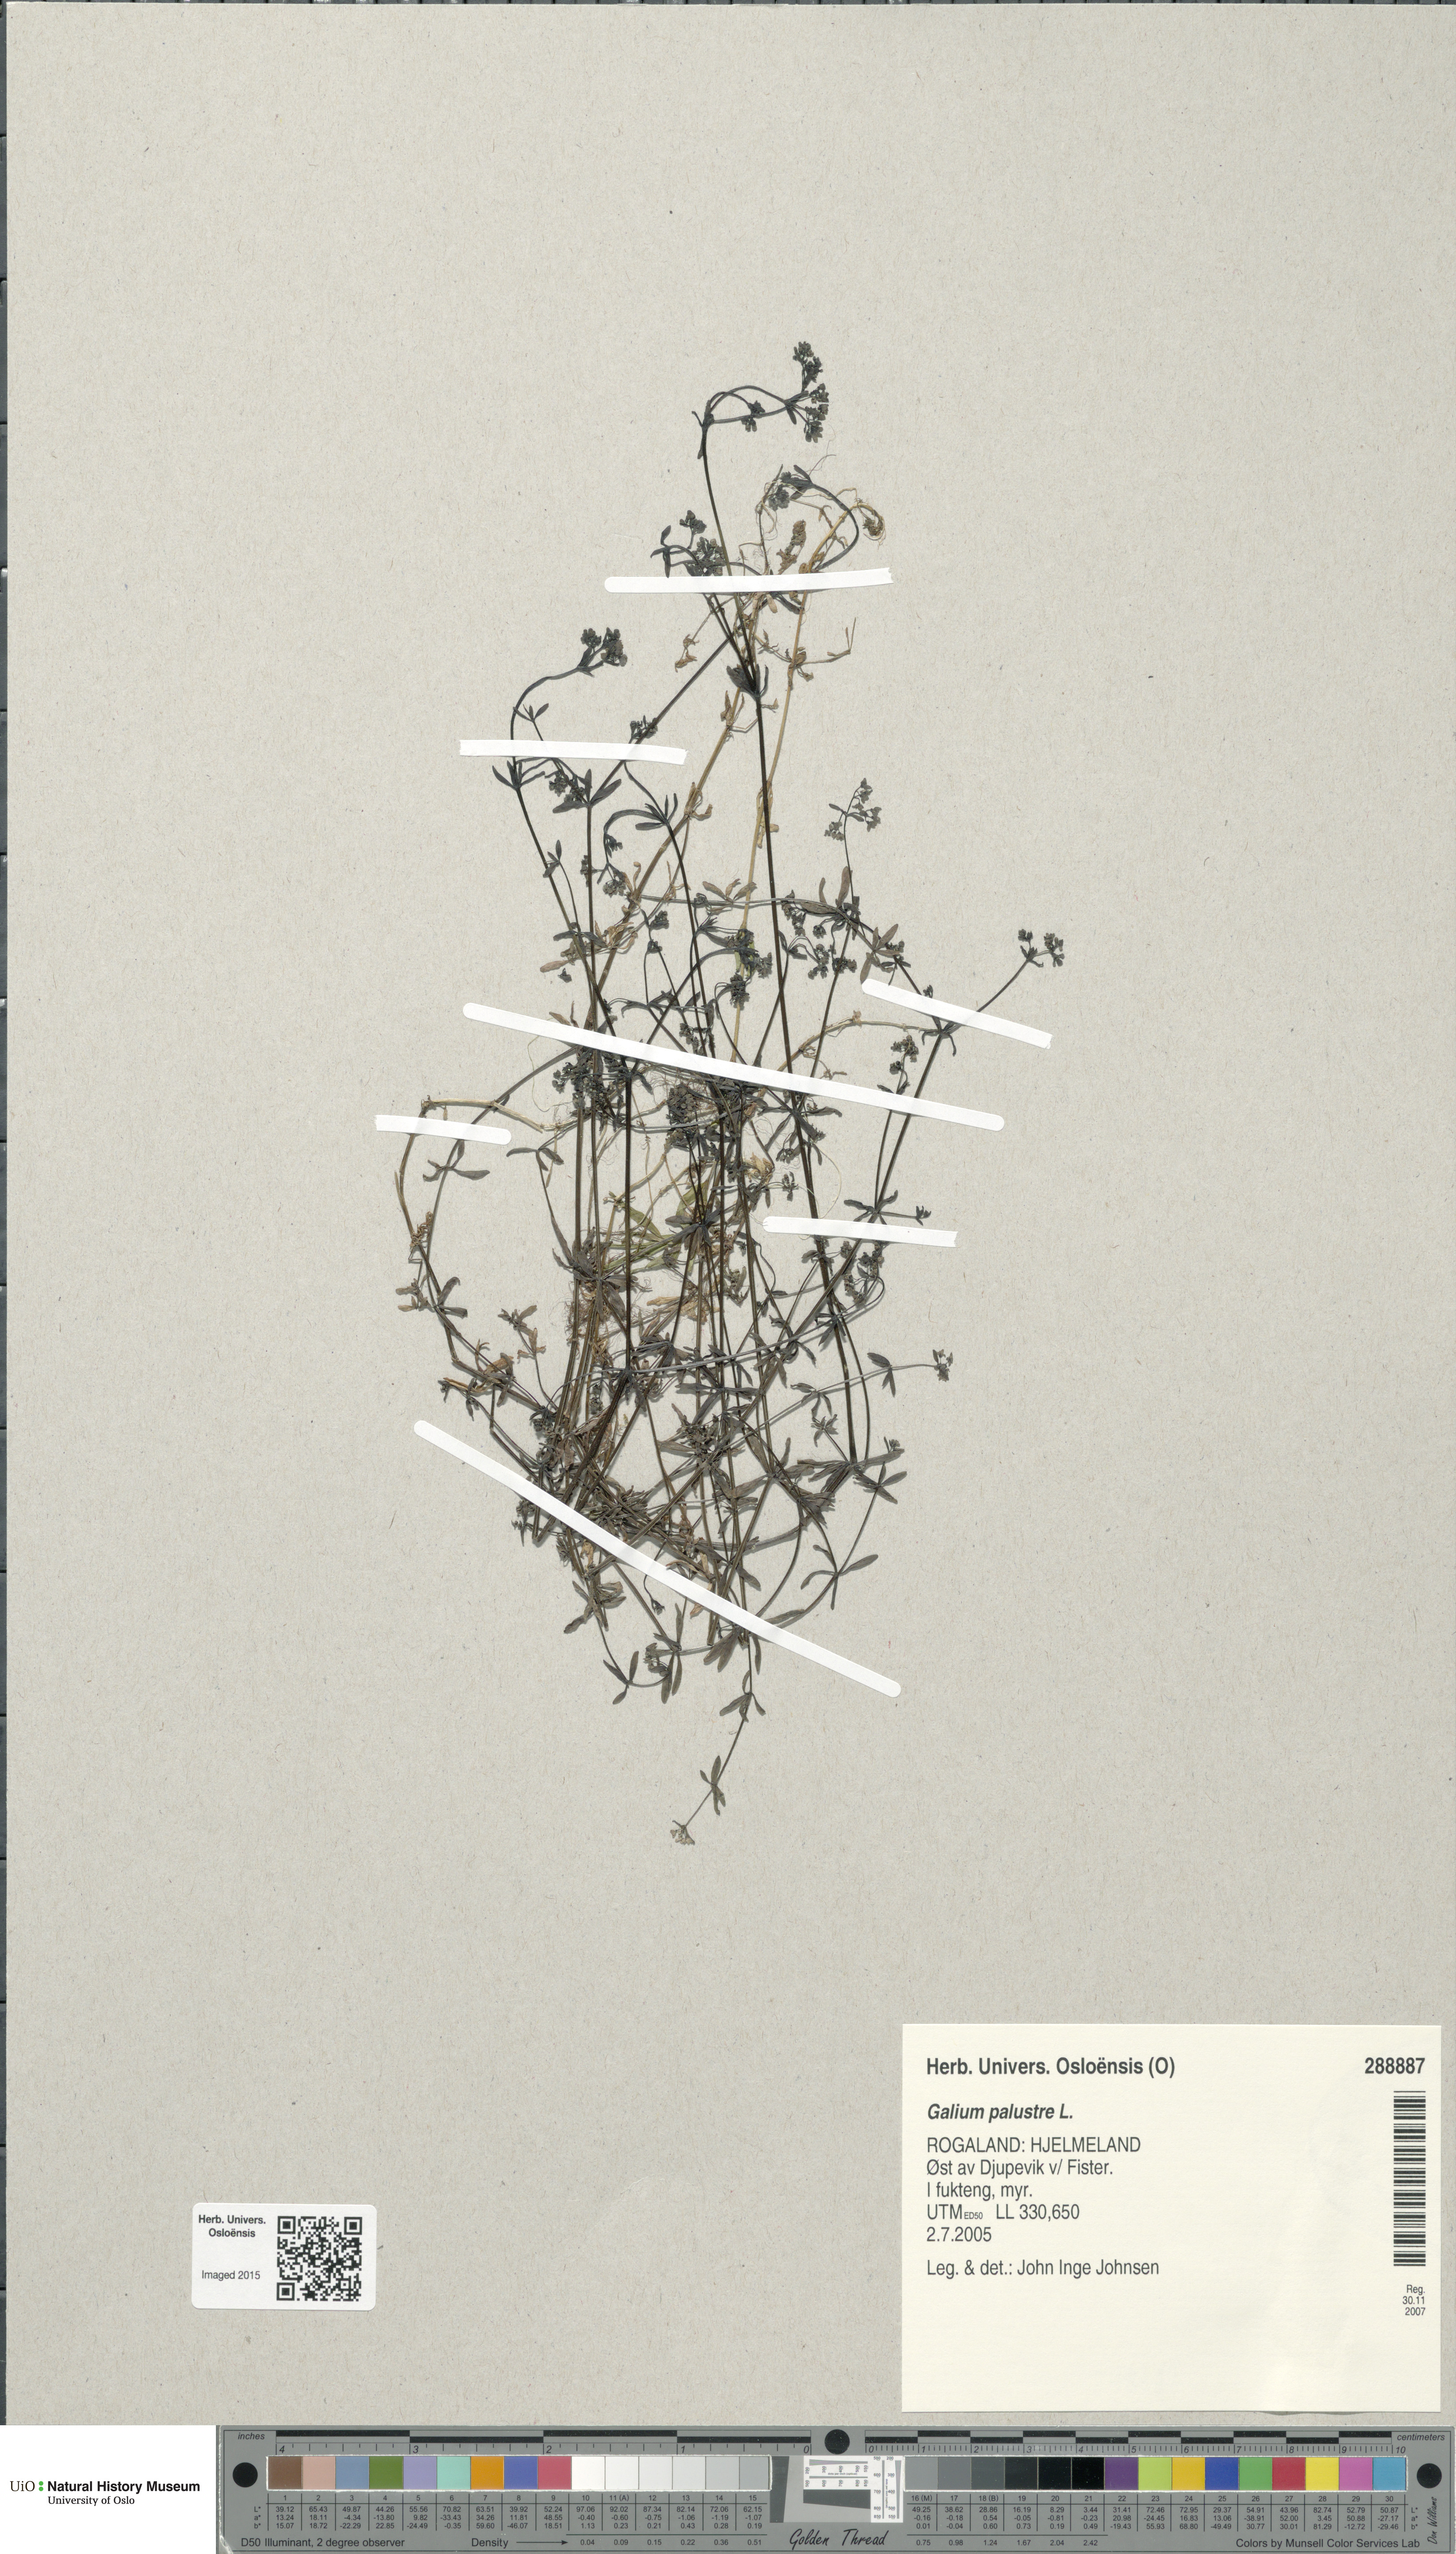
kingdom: Plantae
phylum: Tracheophyta
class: Magnoliopsida
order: Gentianales
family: Rubiaceae
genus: Galium
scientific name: Galium palustre
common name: Common marsh-bedstraw
